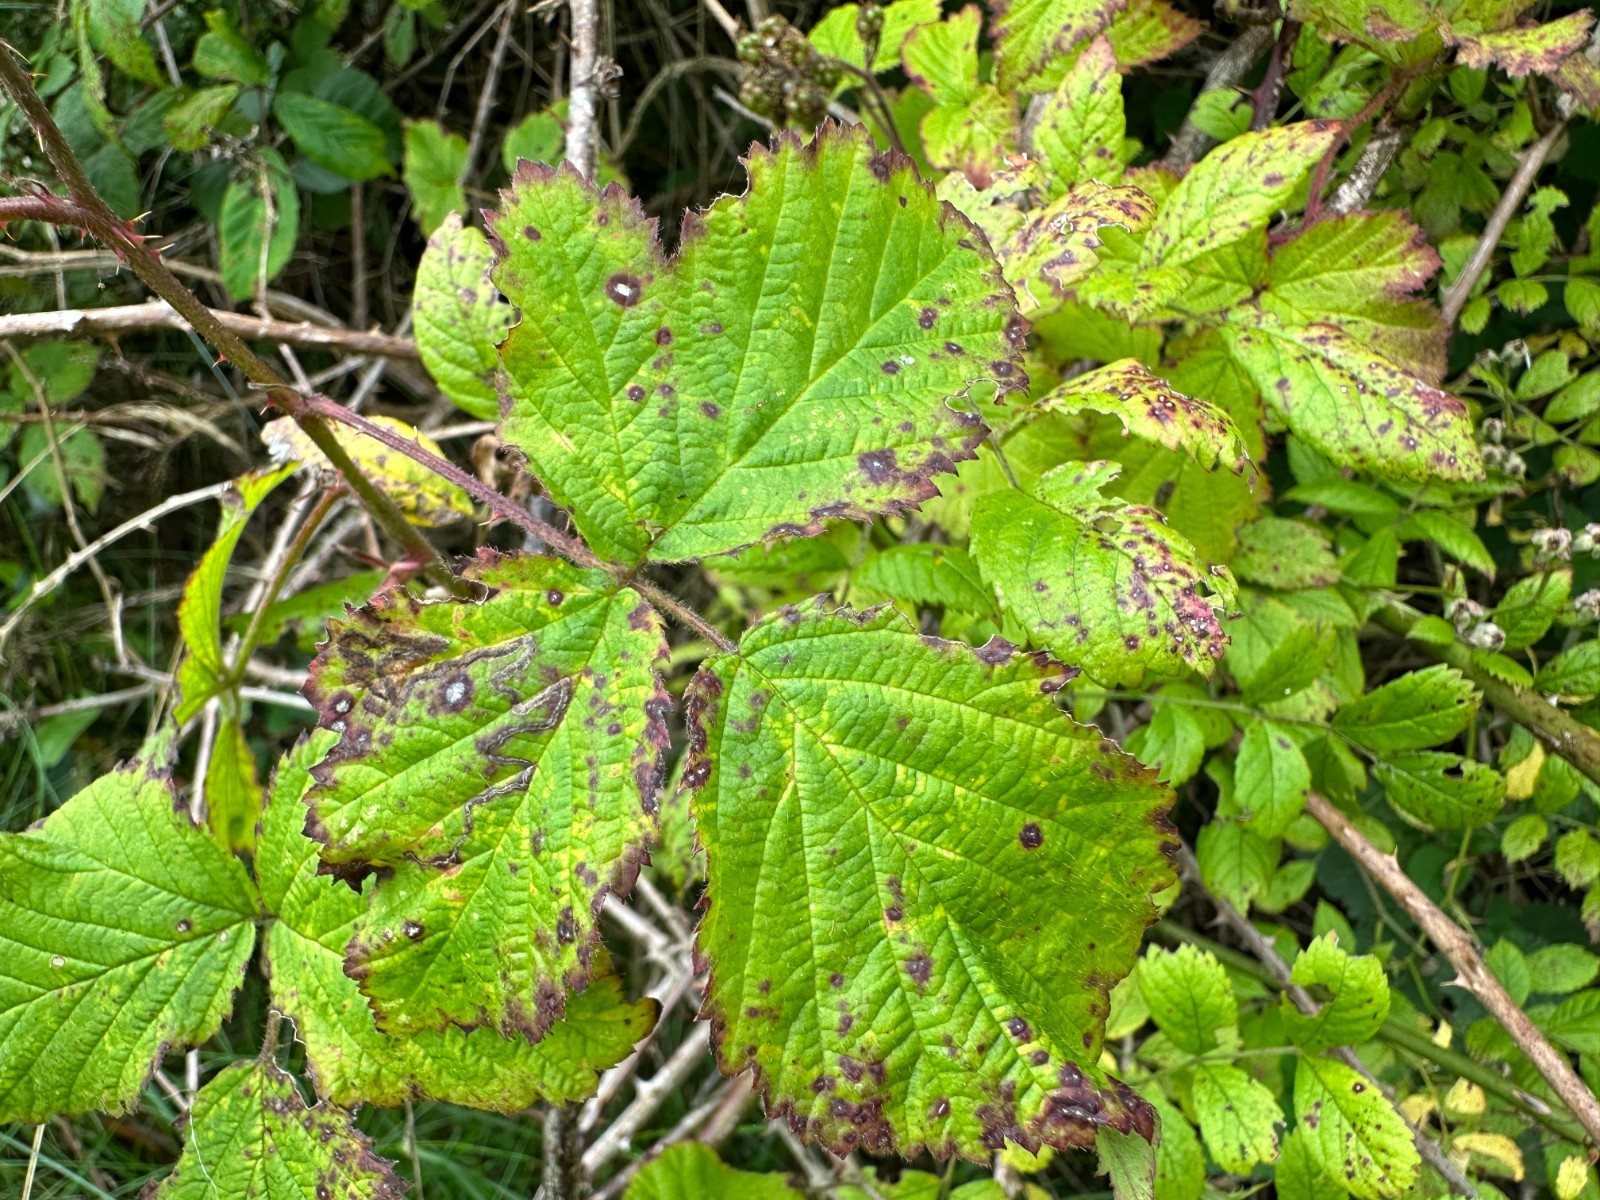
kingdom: Fungi
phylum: Basidiomycota
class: Pucciniomycetes
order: Pucciniales
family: Phragmidiaceae
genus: Phragmidium
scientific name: Phragmidium violaceum
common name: violet flercellerust
